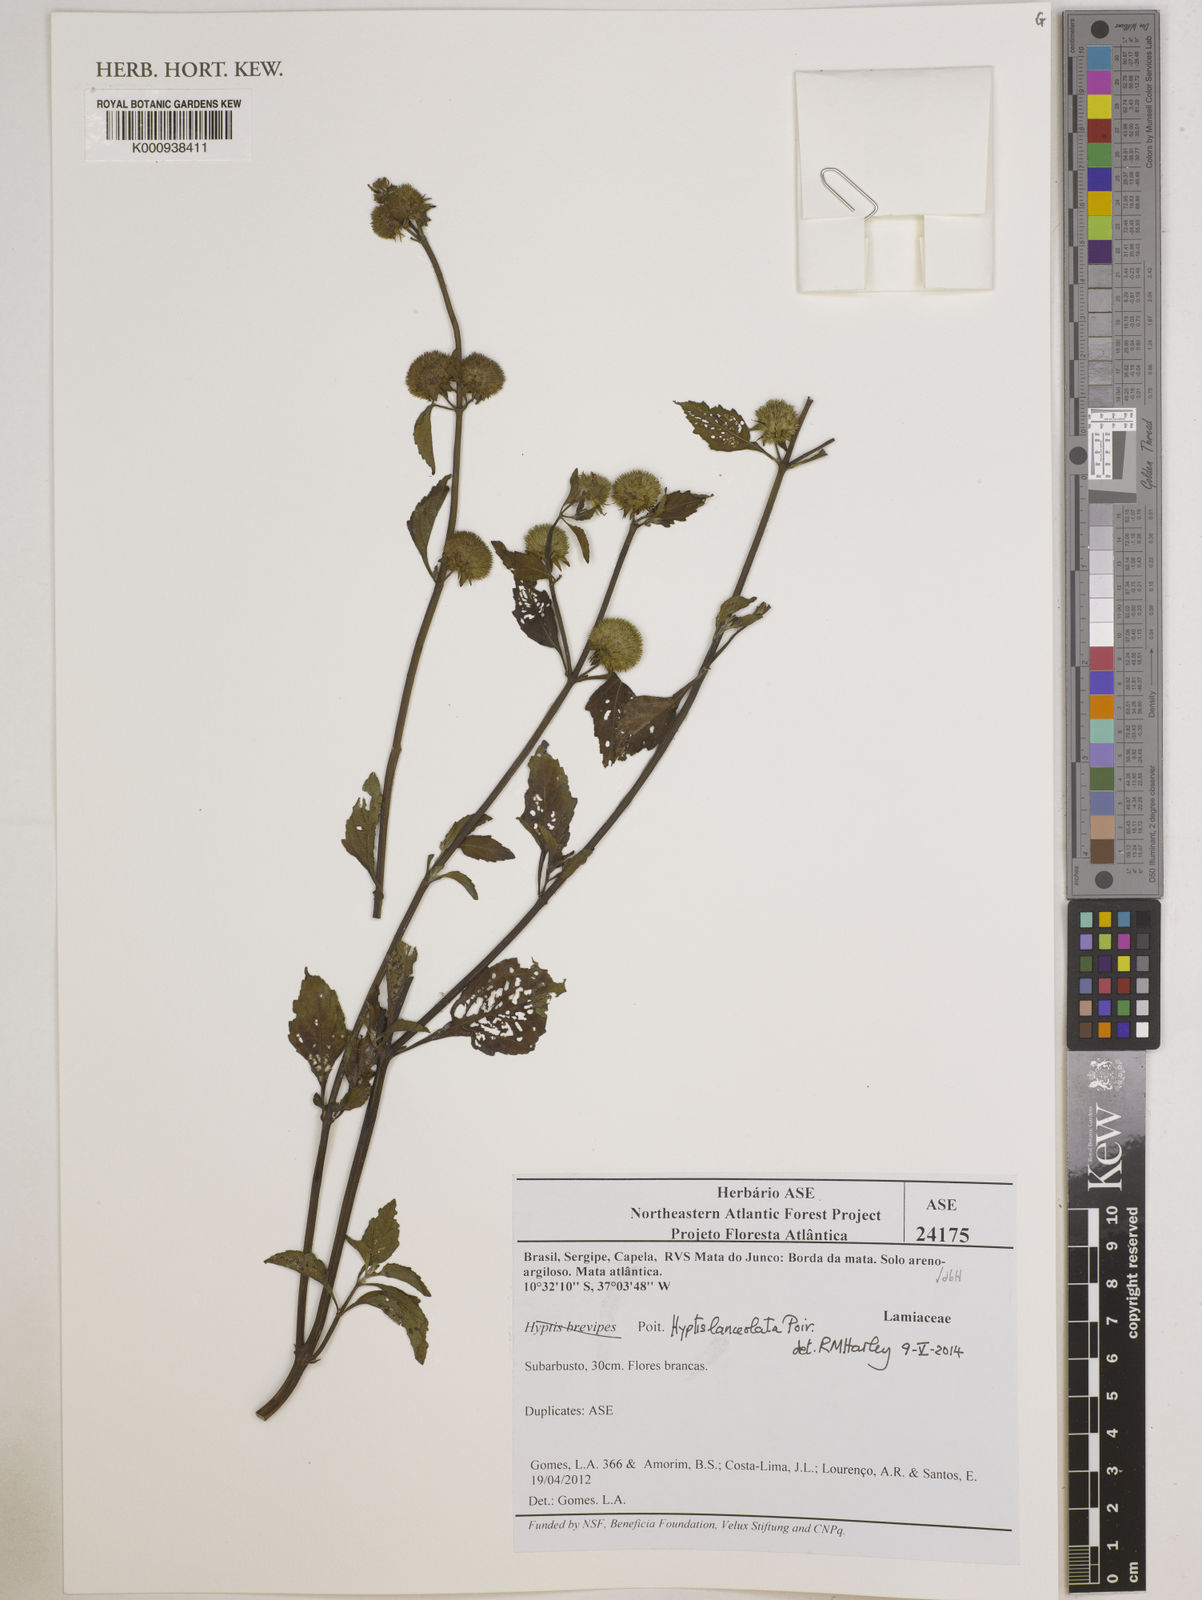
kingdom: Plantae
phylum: Tracheophyta
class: Magnoliopsida
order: Lamiales
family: Lamiaceae
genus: Hyptis
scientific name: Hyptis lanceolata
